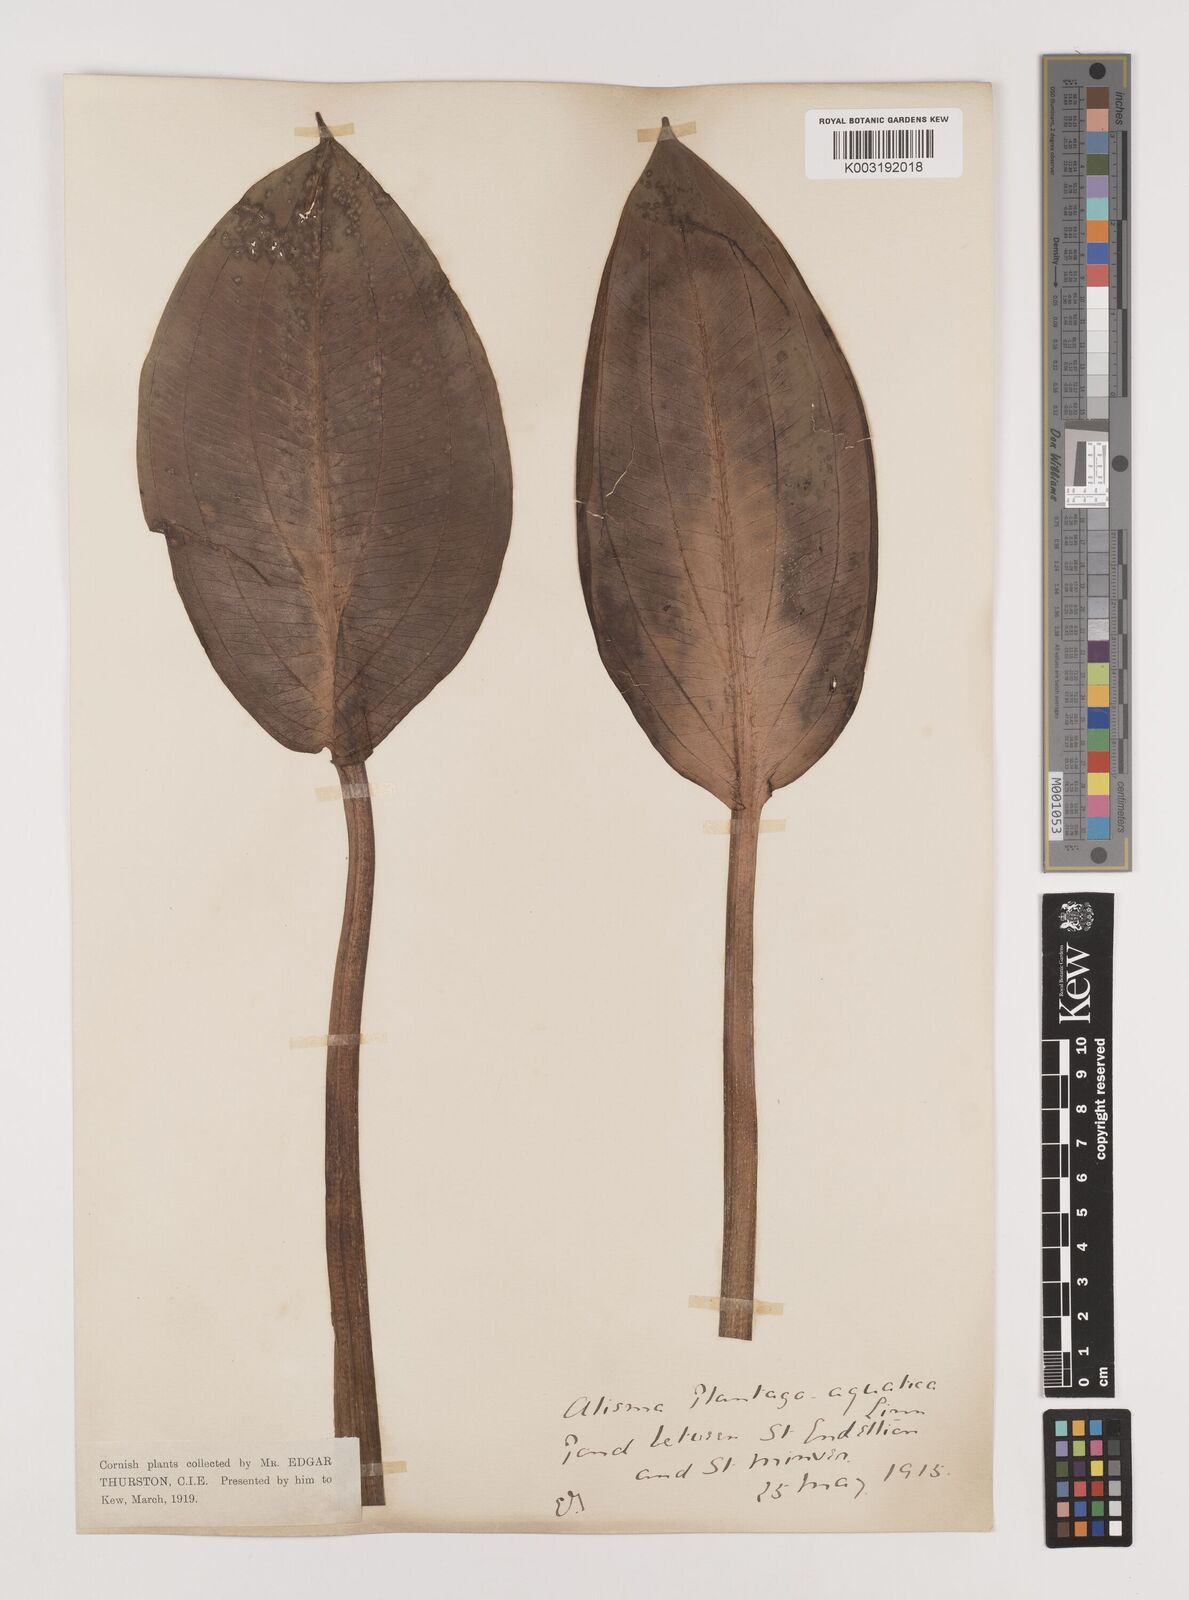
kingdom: Plantae
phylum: Tracheophyta
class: Liliopsida
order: Alismatales
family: Alismataceae
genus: Alisma
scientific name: Alisma plantago-aquatica
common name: Water-plantain
